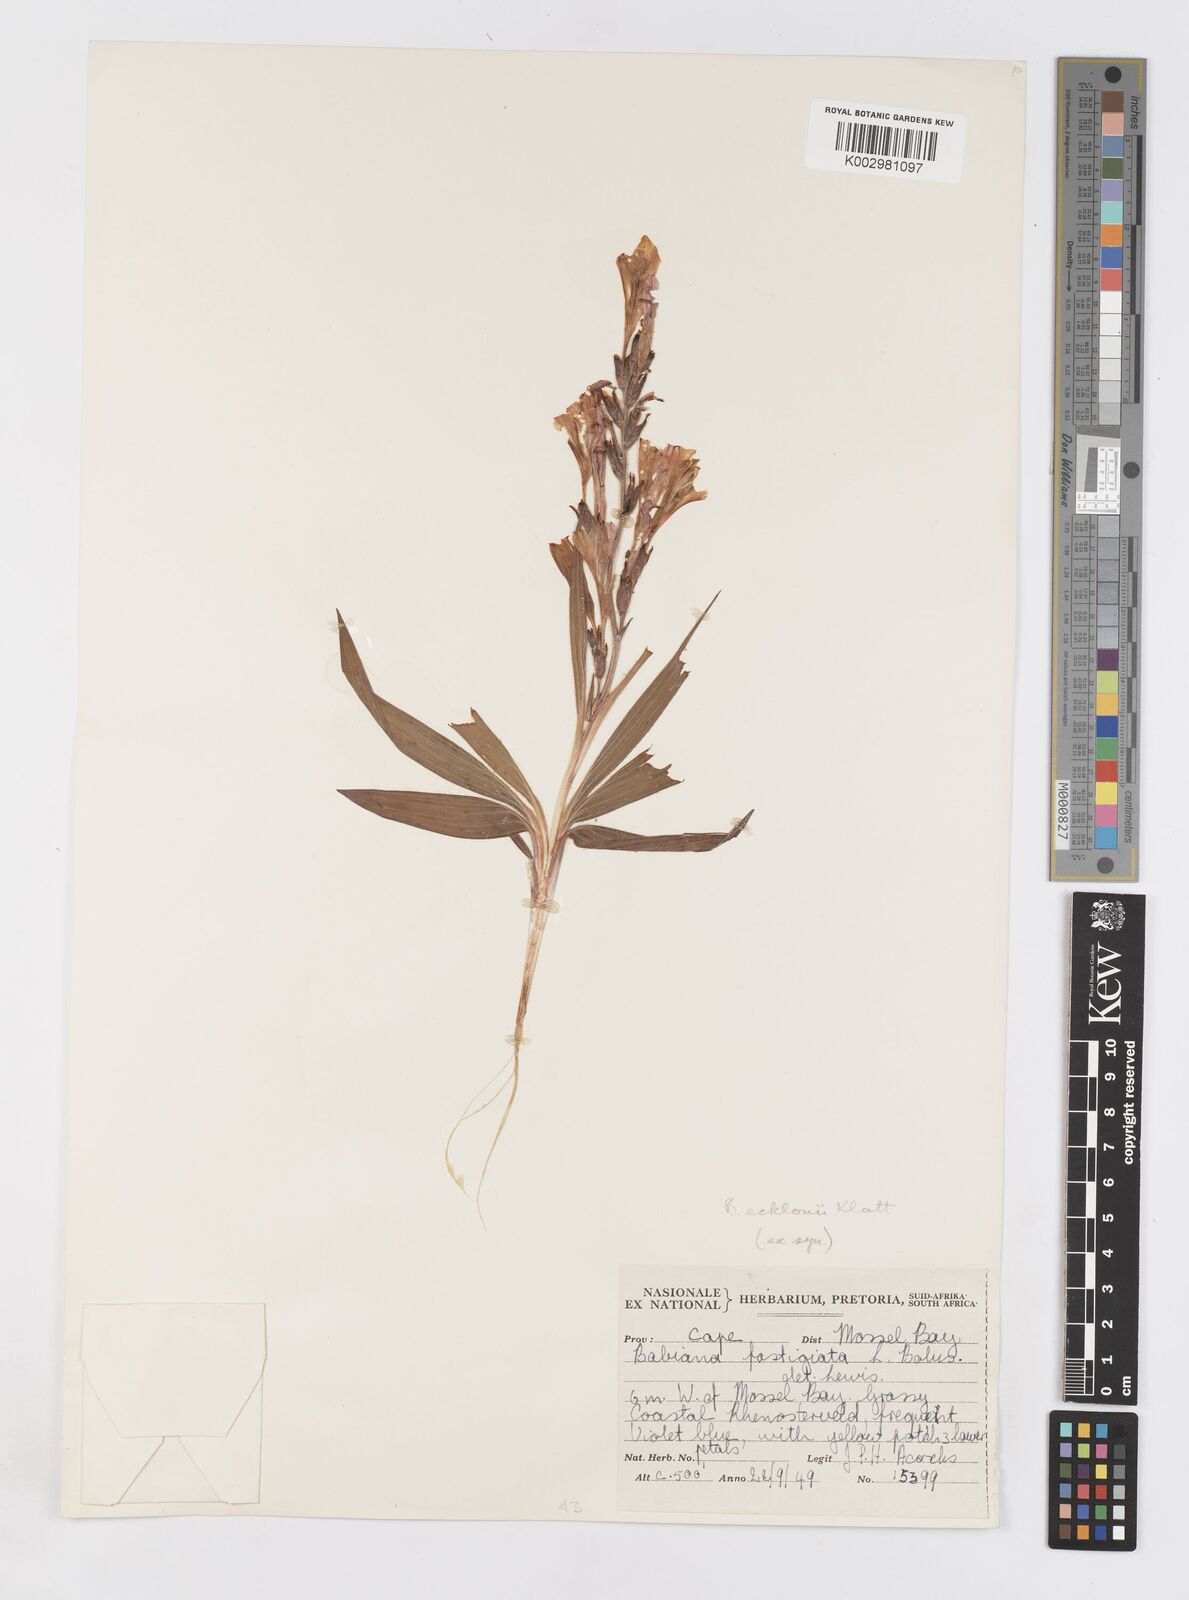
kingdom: Plantae
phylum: Tracheophyta
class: Liliopsida
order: Asparagales
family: Iridaceae
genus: Babiana
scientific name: Babiana ecklonii
